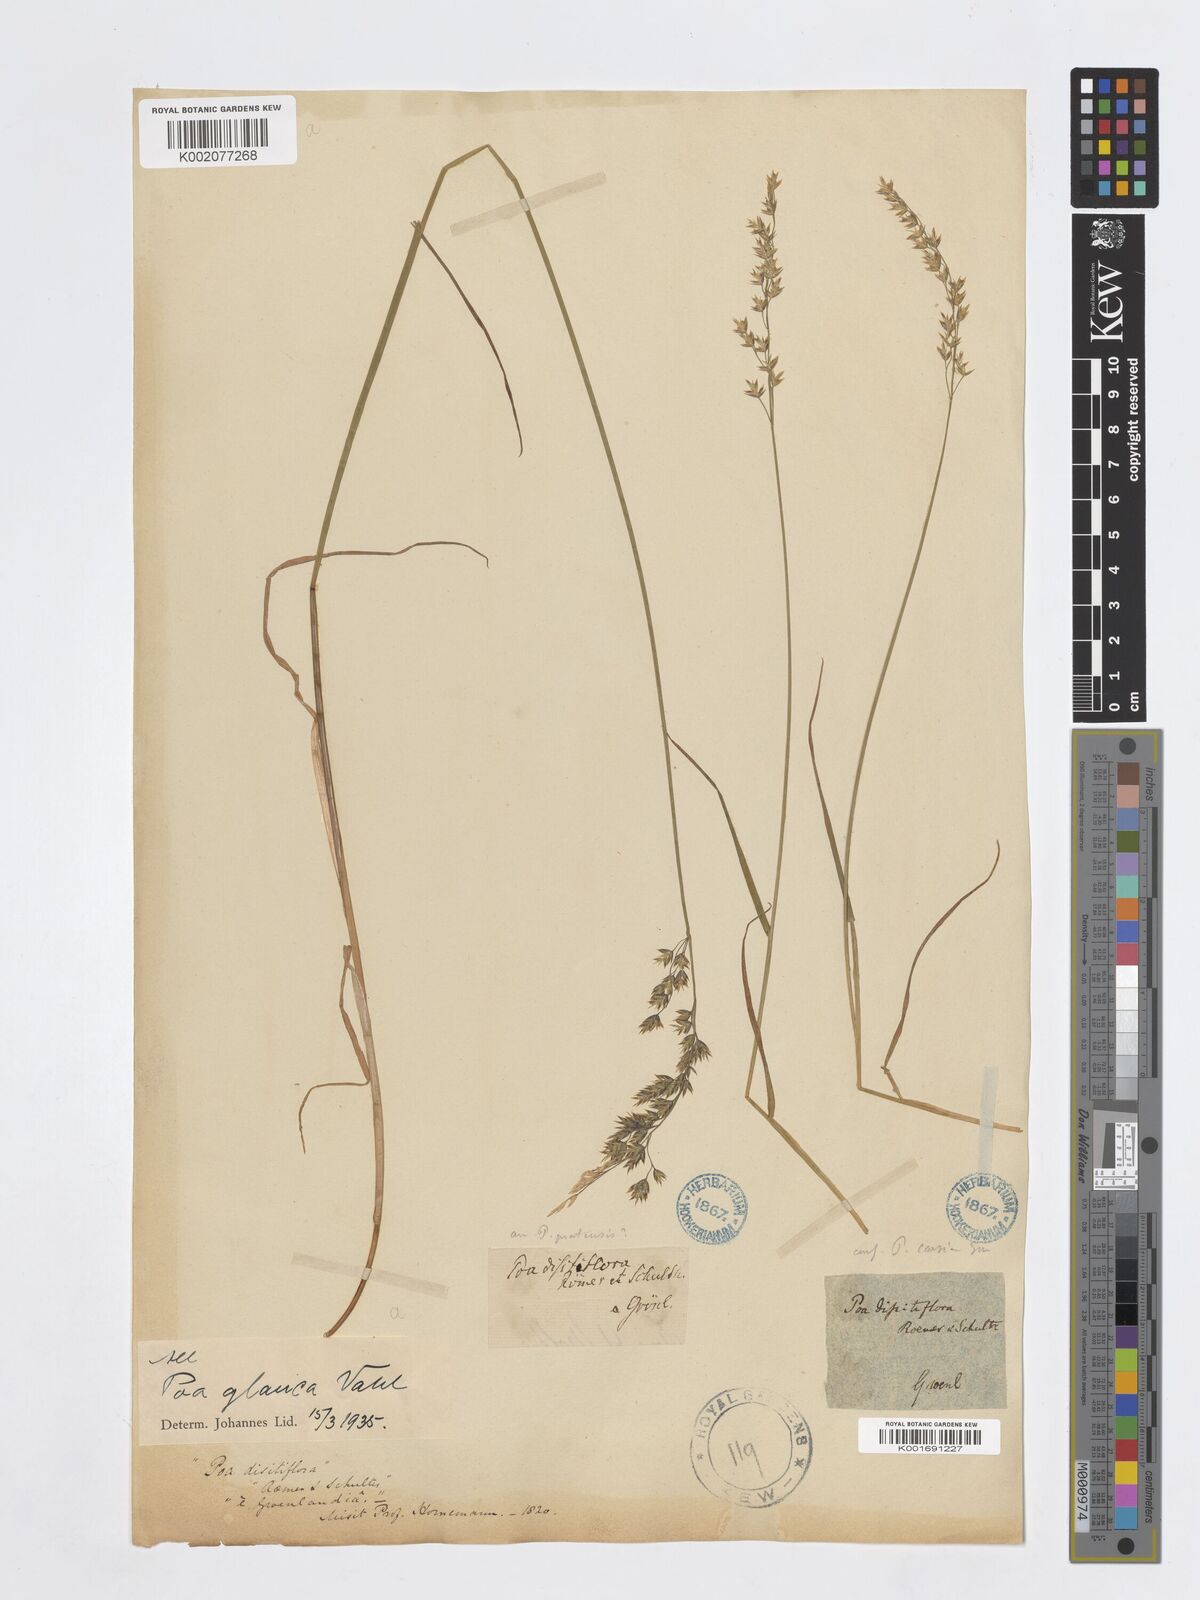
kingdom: Plantae
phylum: Tracheophyta
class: Liliopsida
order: Poales
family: Poaceae
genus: Poa
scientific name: Poa glauca
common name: Glaucous bluegrass
